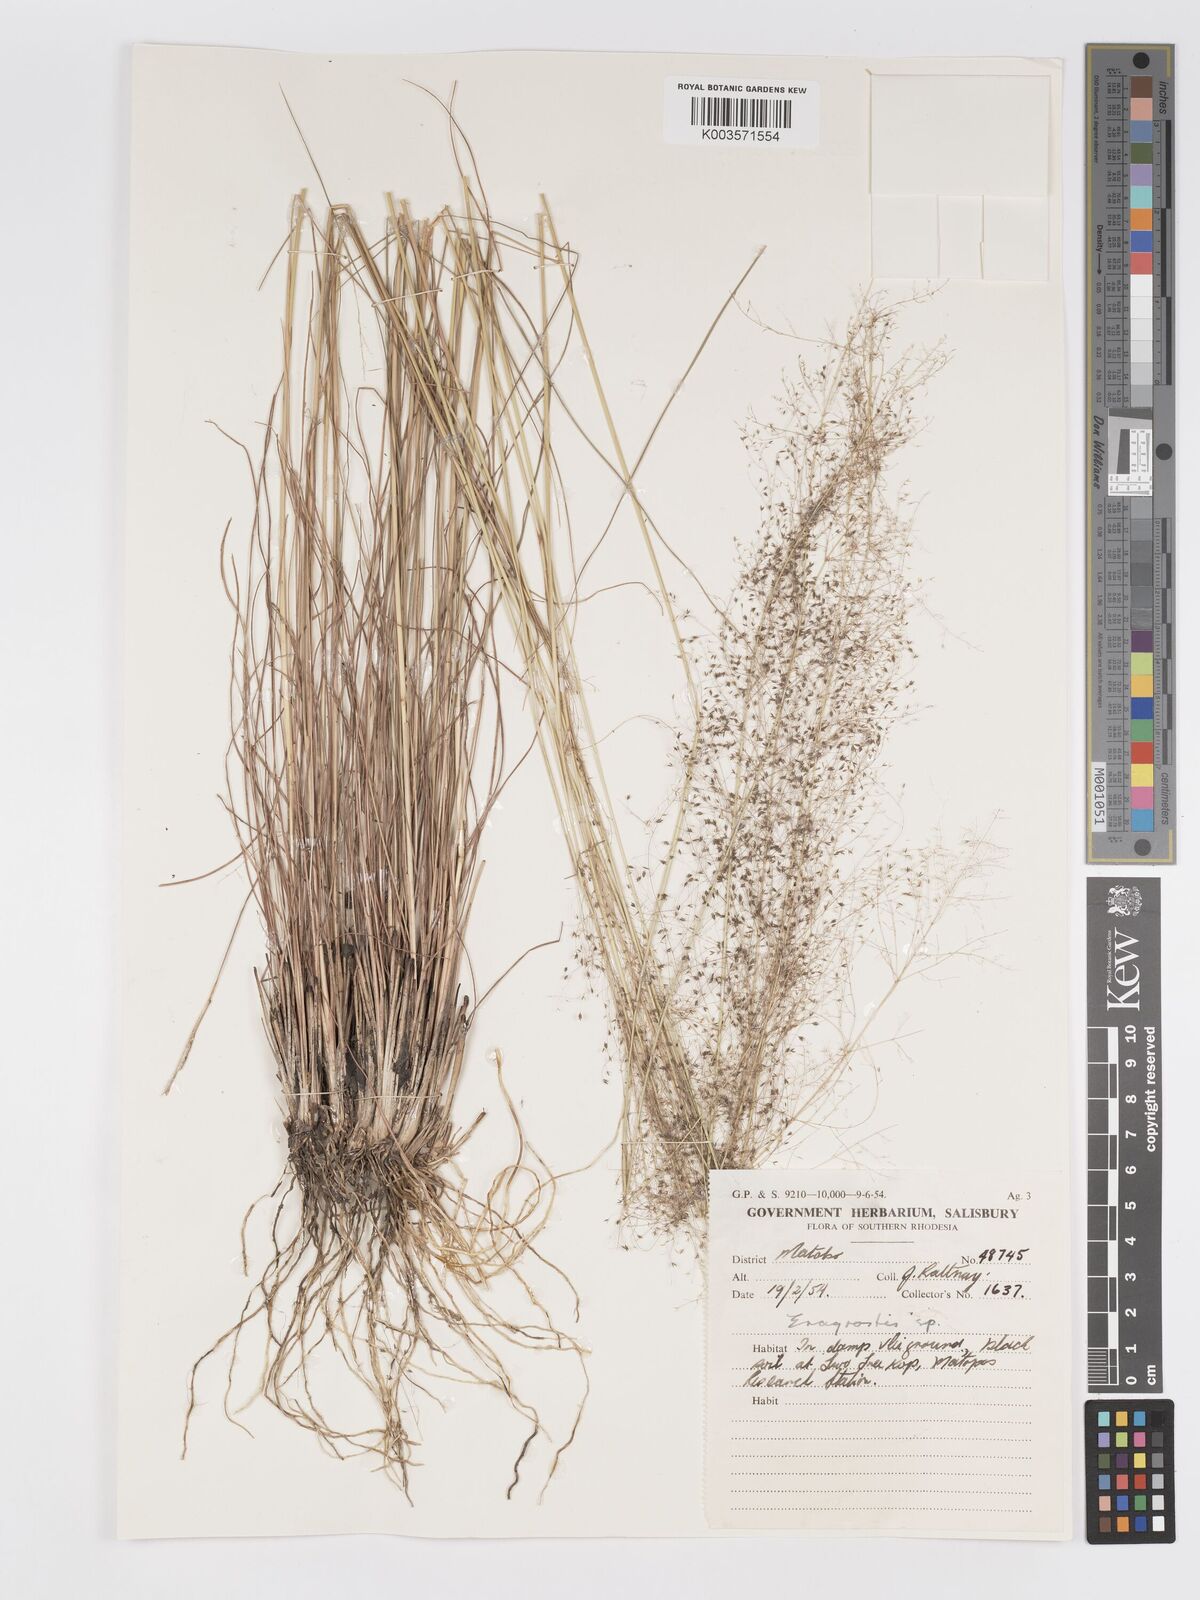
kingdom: Plantae
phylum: Tracheophyta
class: Liliopsida
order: Poales
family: Poaceae
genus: Eragrostis
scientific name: Eragrostis habrantha
